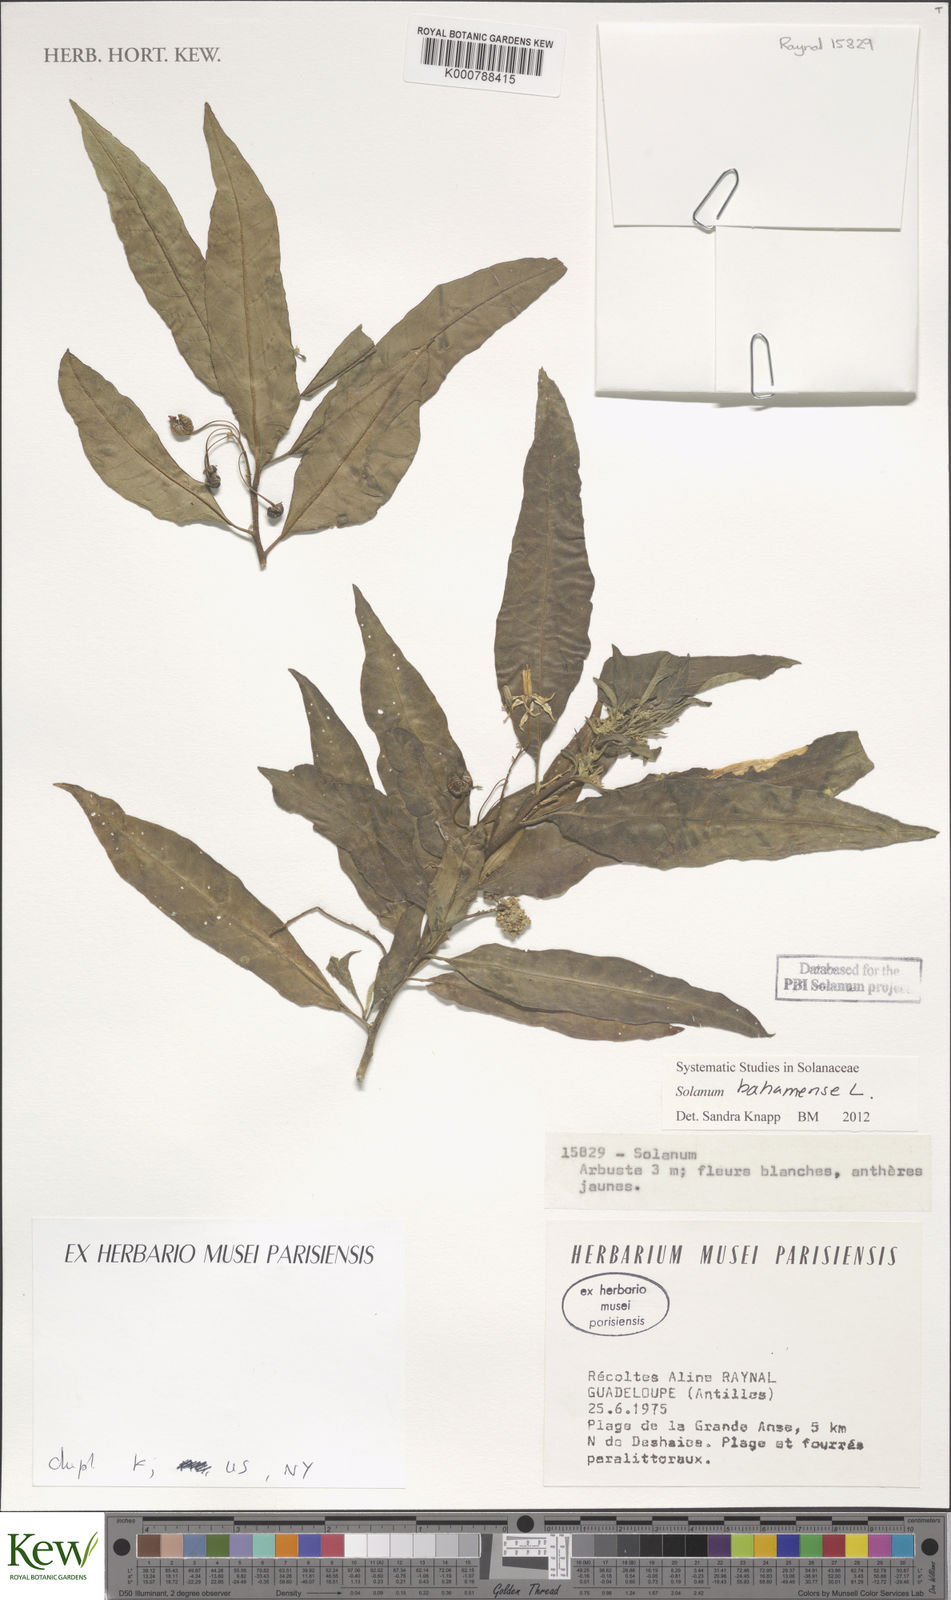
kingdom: Plantae
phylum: Tracheophyta
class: Magnoliopsida
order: Solanales
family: Solanaceae
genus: Solanum
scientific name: Solanum bahamense
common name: Canker-berry
